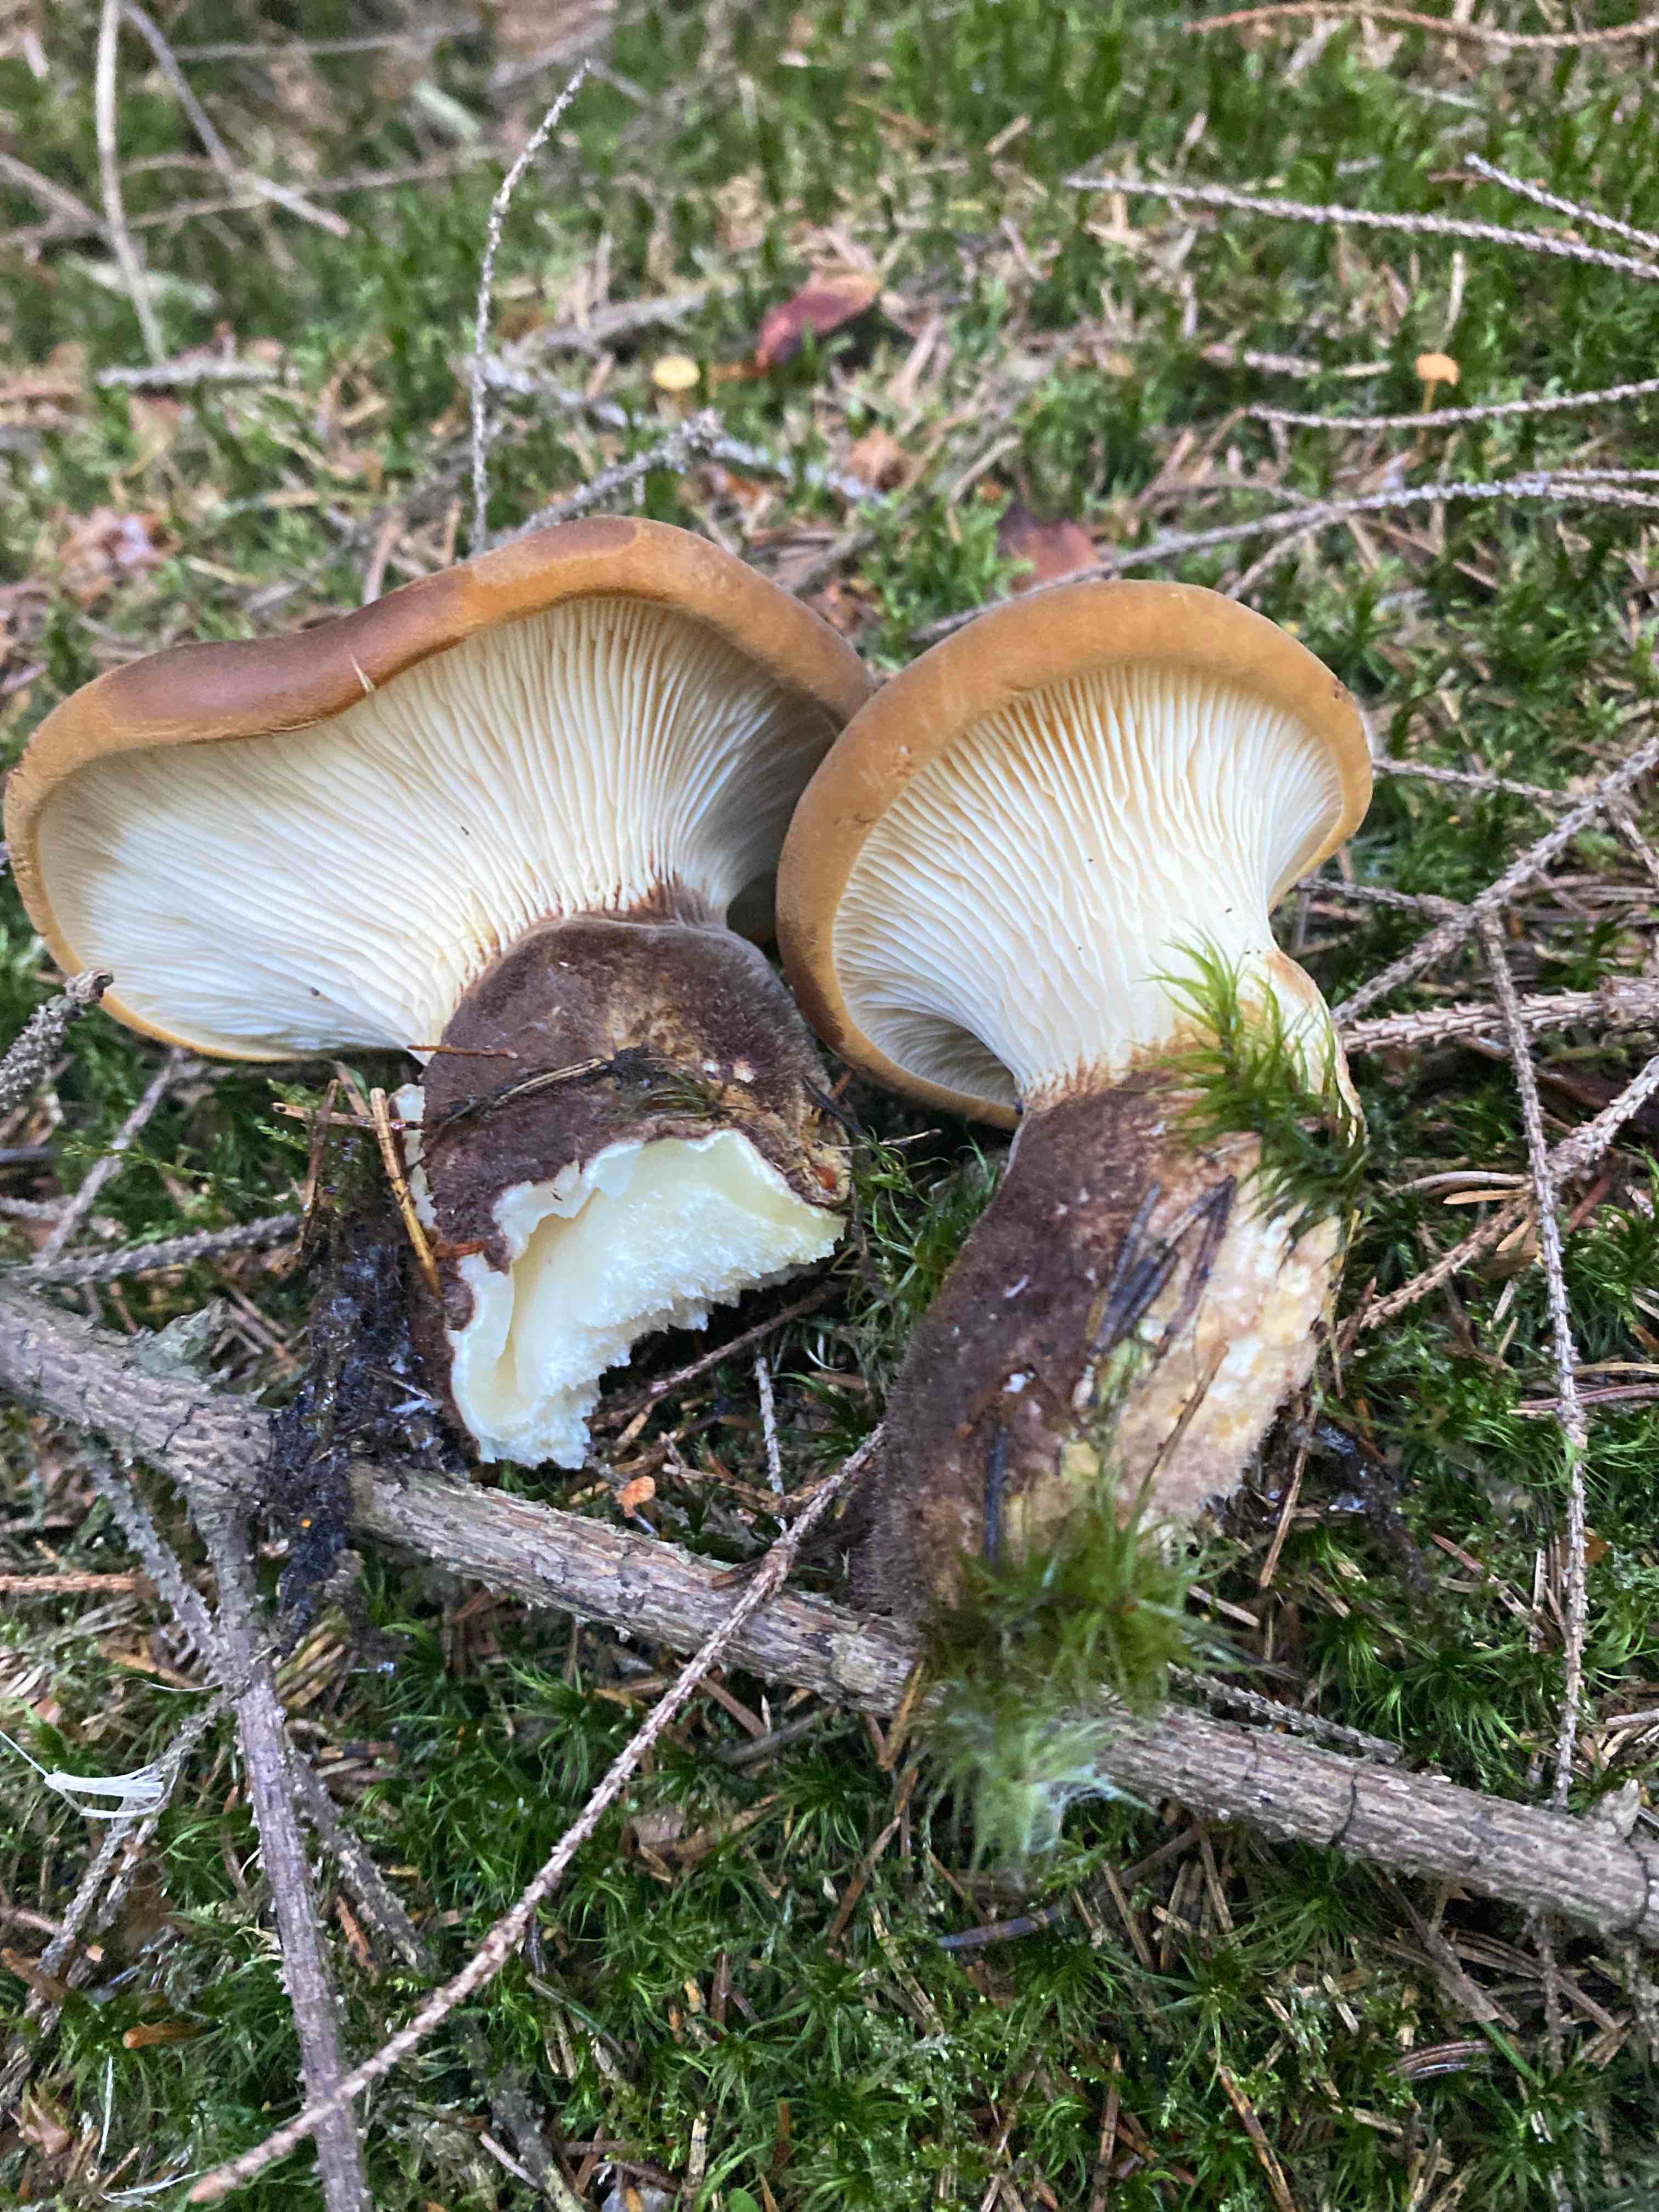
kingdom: Fungi
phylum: Basidiomycota
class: Agaricomycetes
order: Boletales
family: Tapinellaceae
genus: Tapinella
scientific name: Tapinella atrotomentosa
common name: sortfiltet viftesvamp
